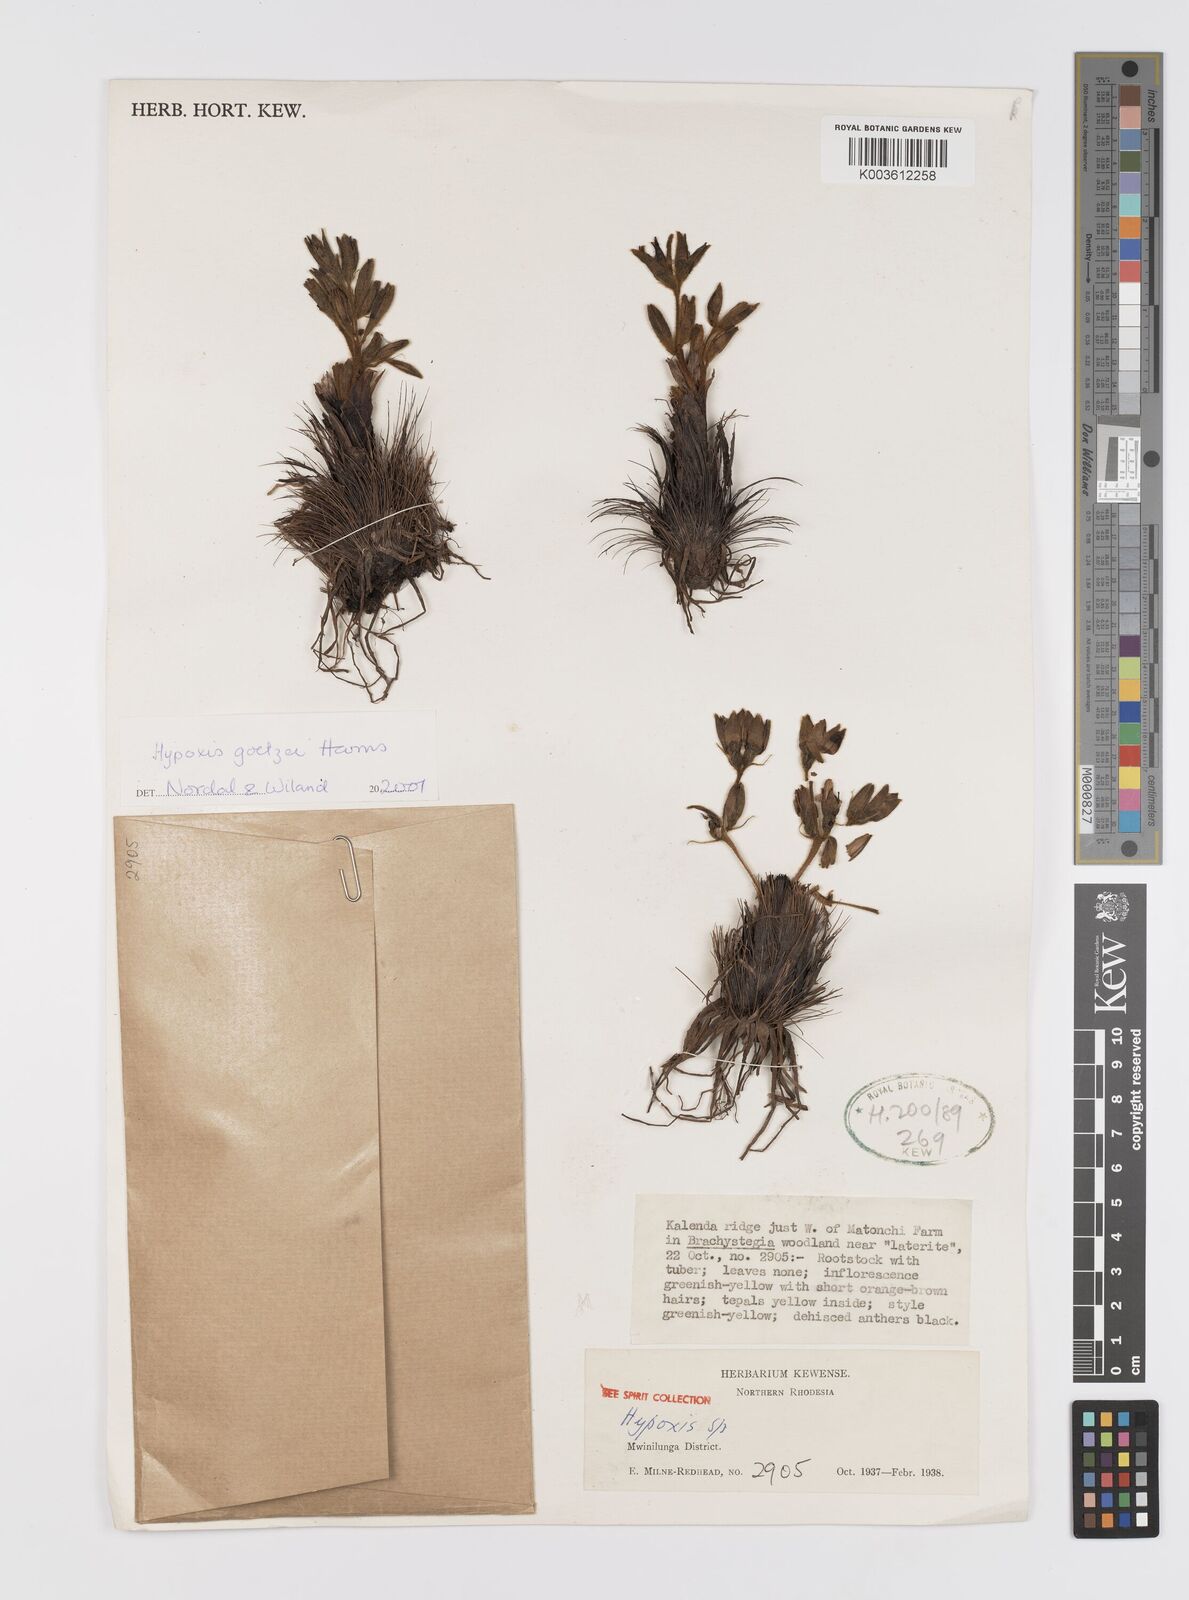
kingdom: Plantae
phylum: Tracheophyta
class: Liliopsida
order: Asparagales
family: Hypoxidaceae
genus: Hypoxis
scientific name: Hypoxis goetzei
